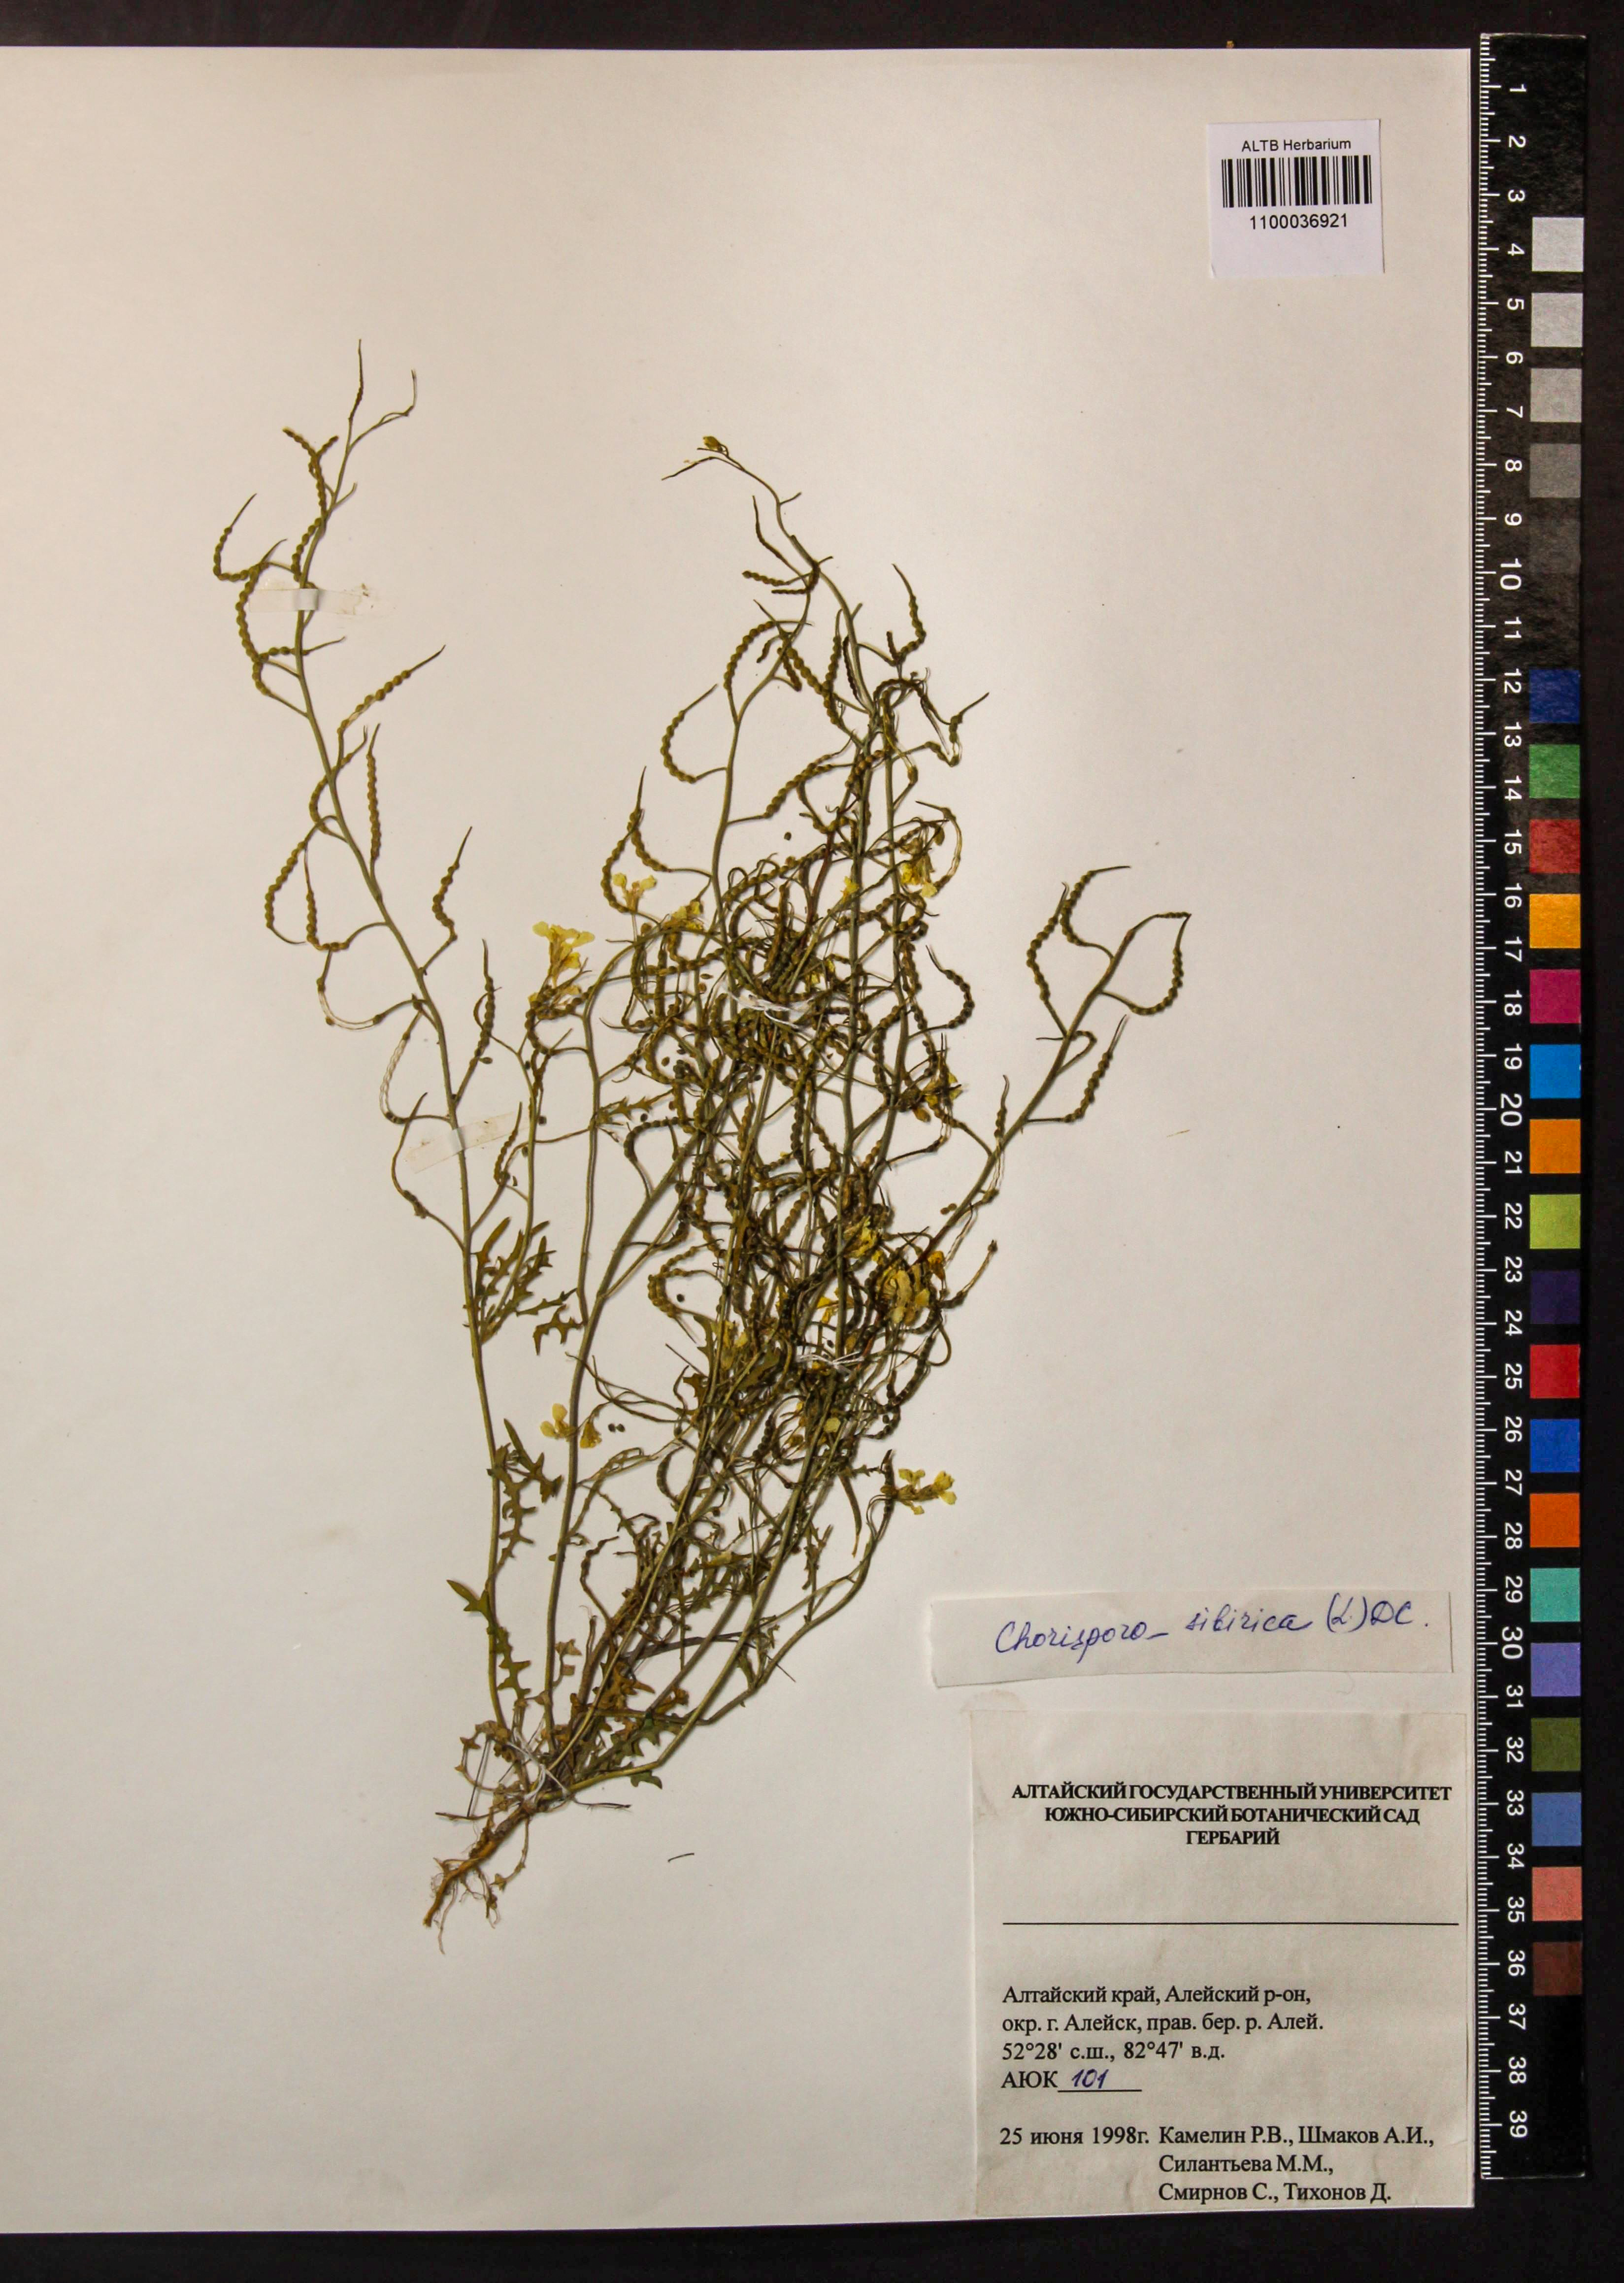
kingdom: Plantae
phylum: Tracheophyta
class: Magnoliopsida
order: Brassicales
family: Brassicaceae
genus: Chorispora
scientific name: Chorispora sibirica
